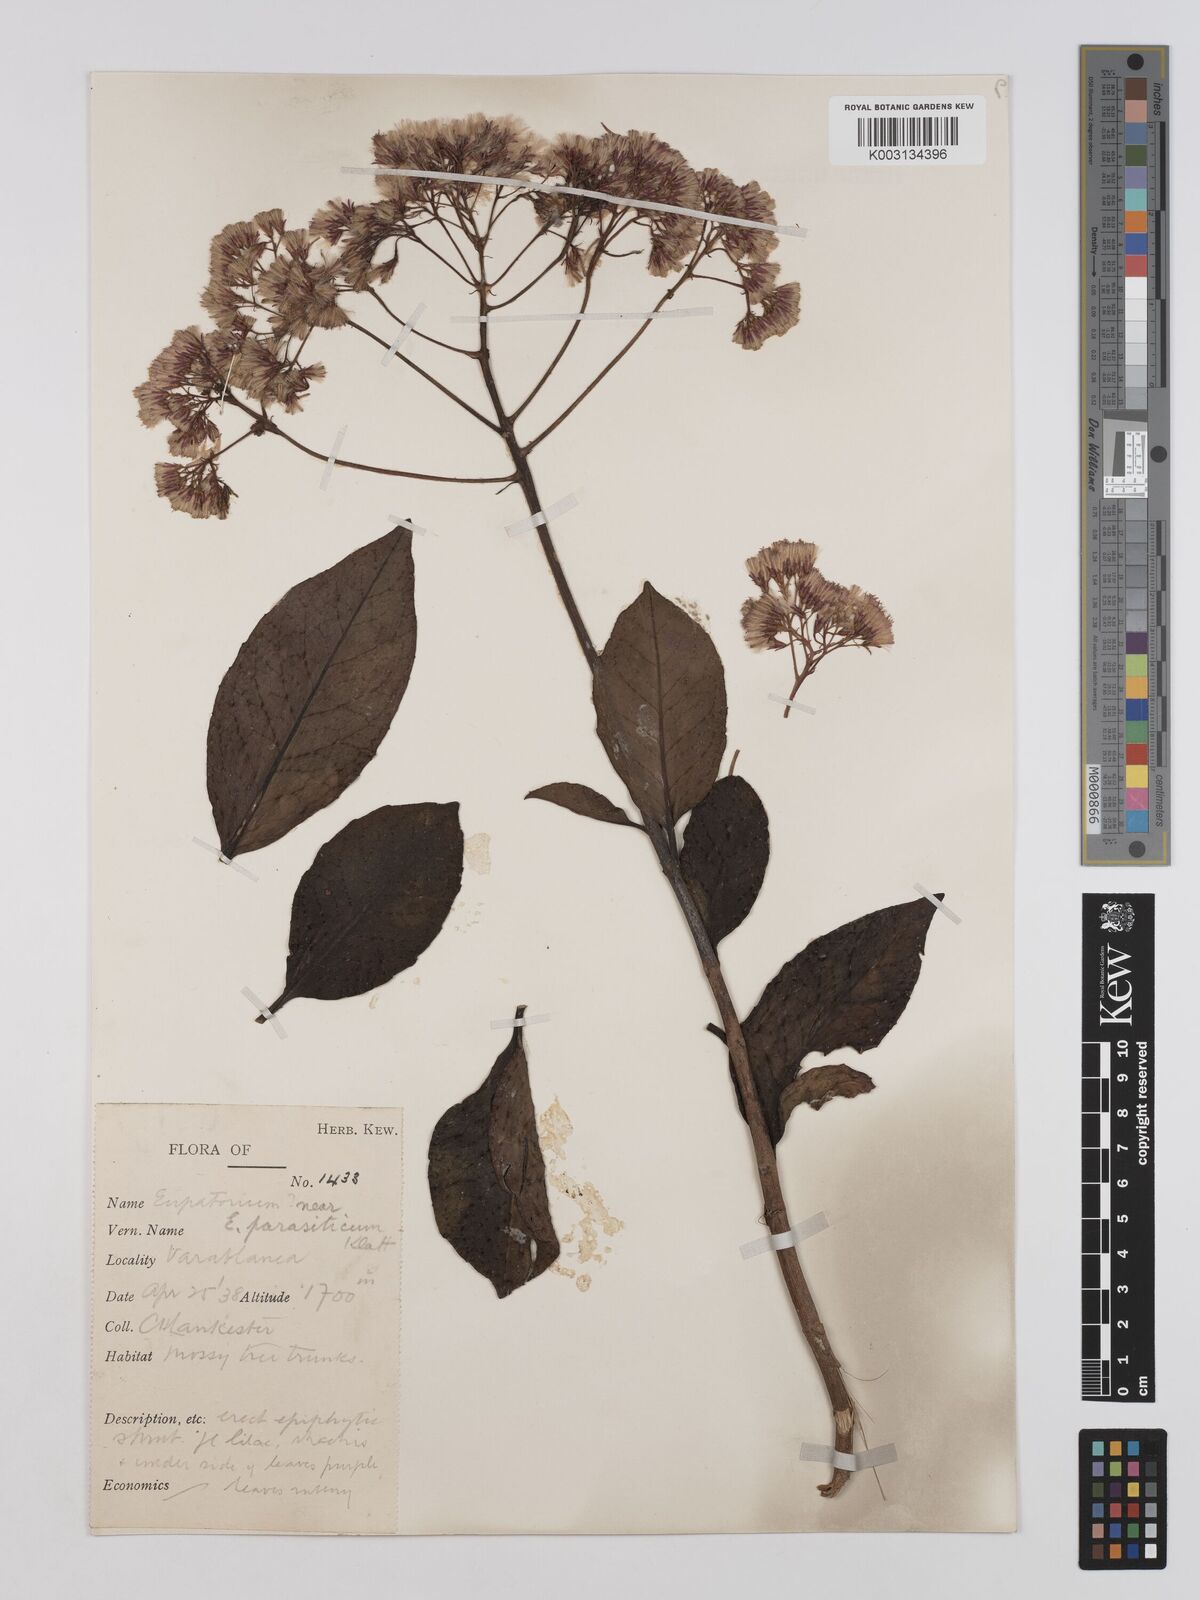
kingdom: Plantae
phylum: Tracheophyta
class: Magnoliopsida
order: Asterales
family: Asteraceae
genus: Neomirandea
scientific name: Neomirandea parasitica
